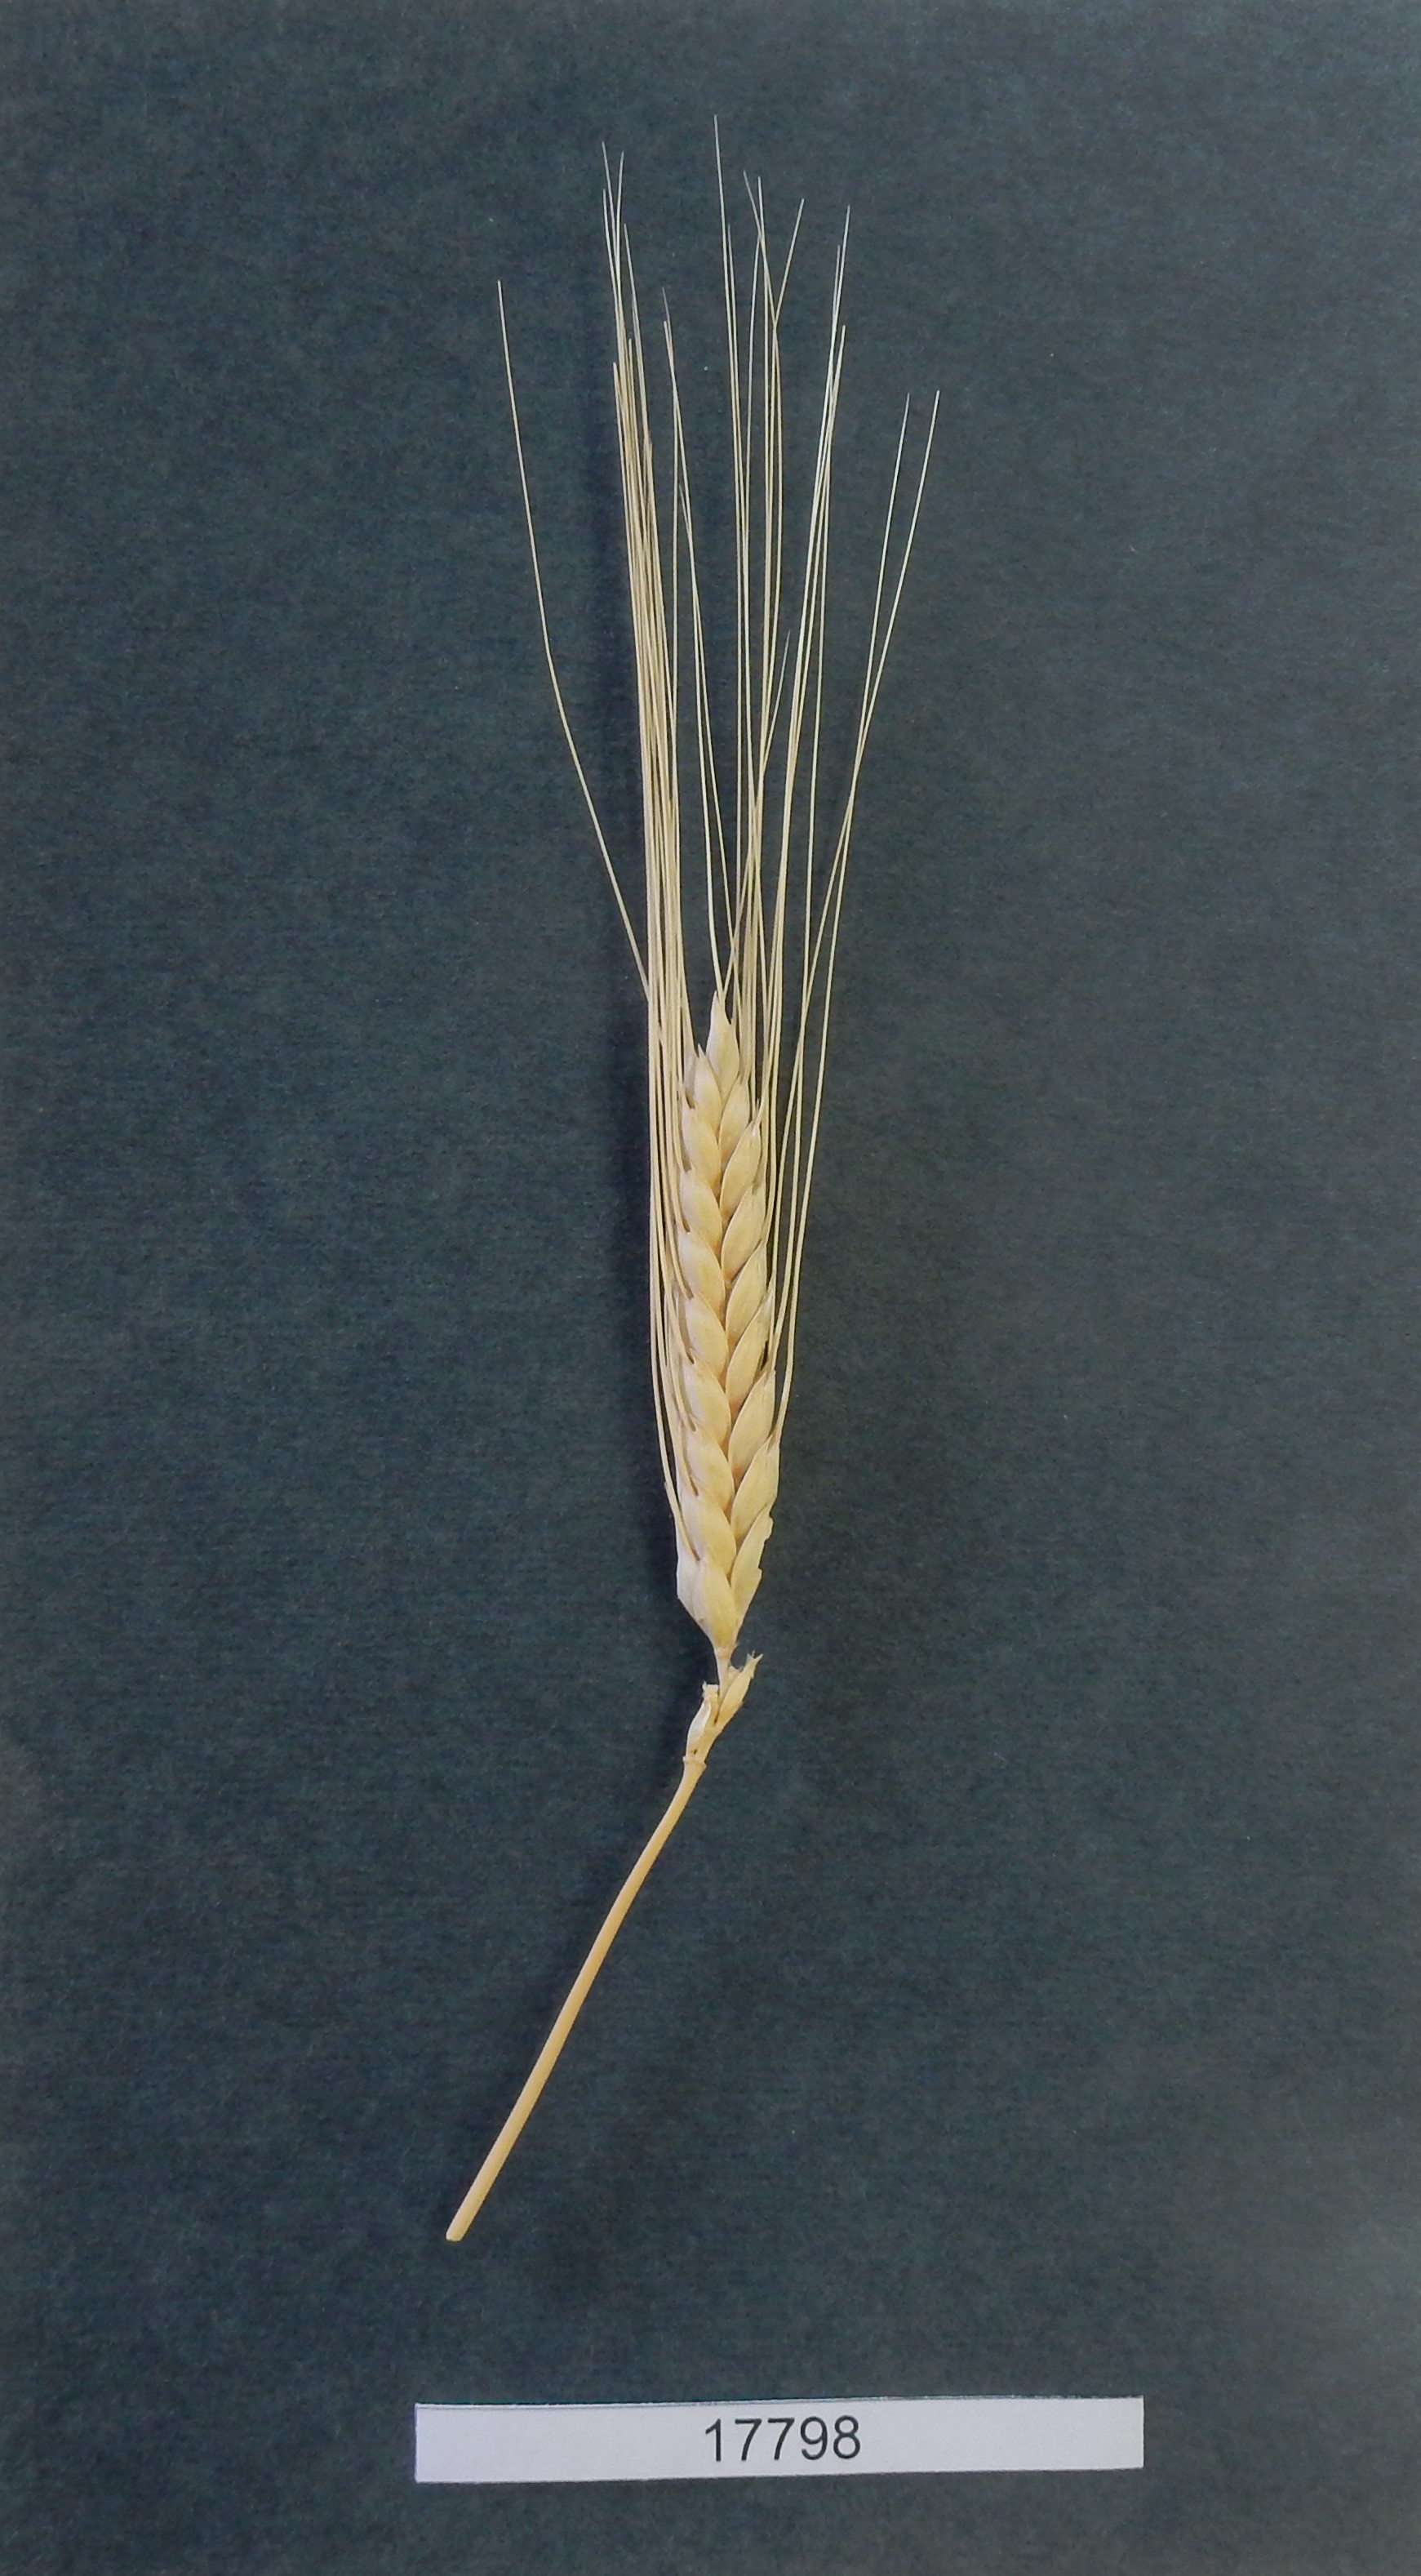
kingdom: Plantae
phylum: Tracheophyta
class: Liliopsida
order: Poales
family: Poaceae
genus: Triticum
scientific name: Triticum turgidum
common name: Wheat
